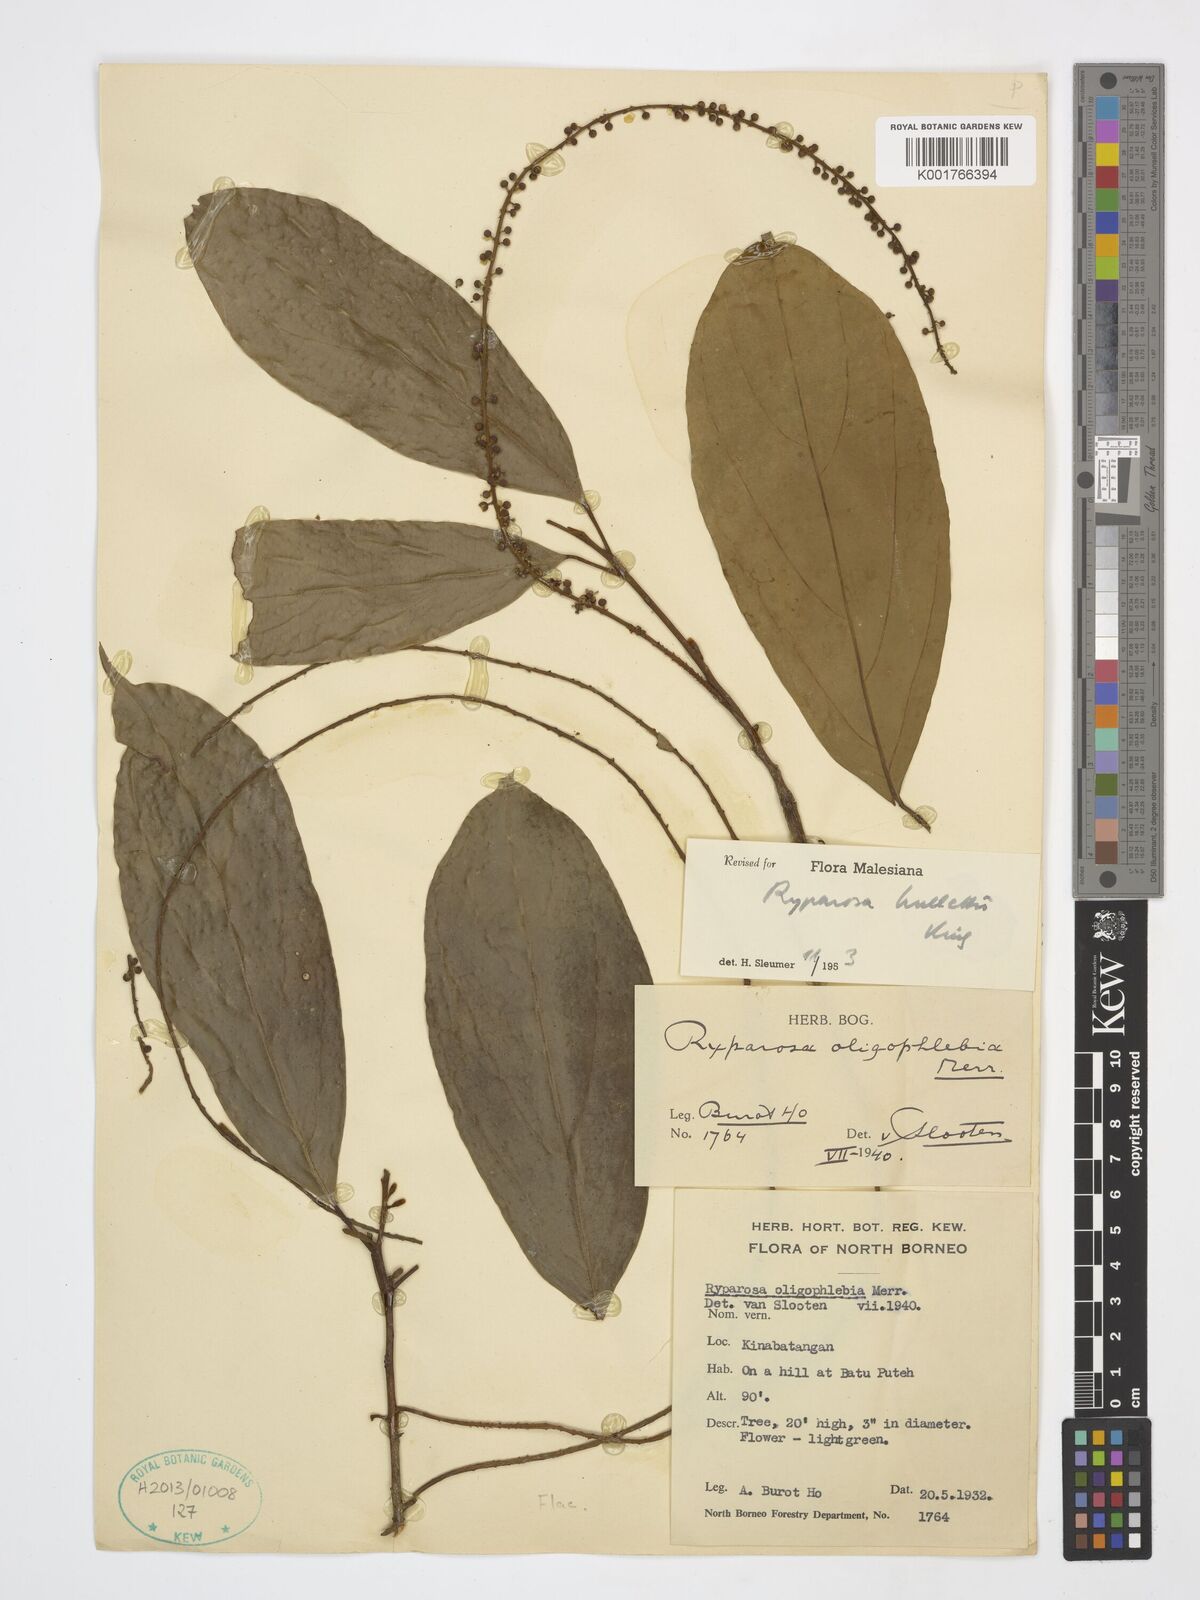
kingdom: Plantae
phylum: Tracheophyta
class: Magnoliopsida
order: Malpighiales
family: Achariaceae
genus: Ryparosa
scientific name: Ryparosa hullettii
